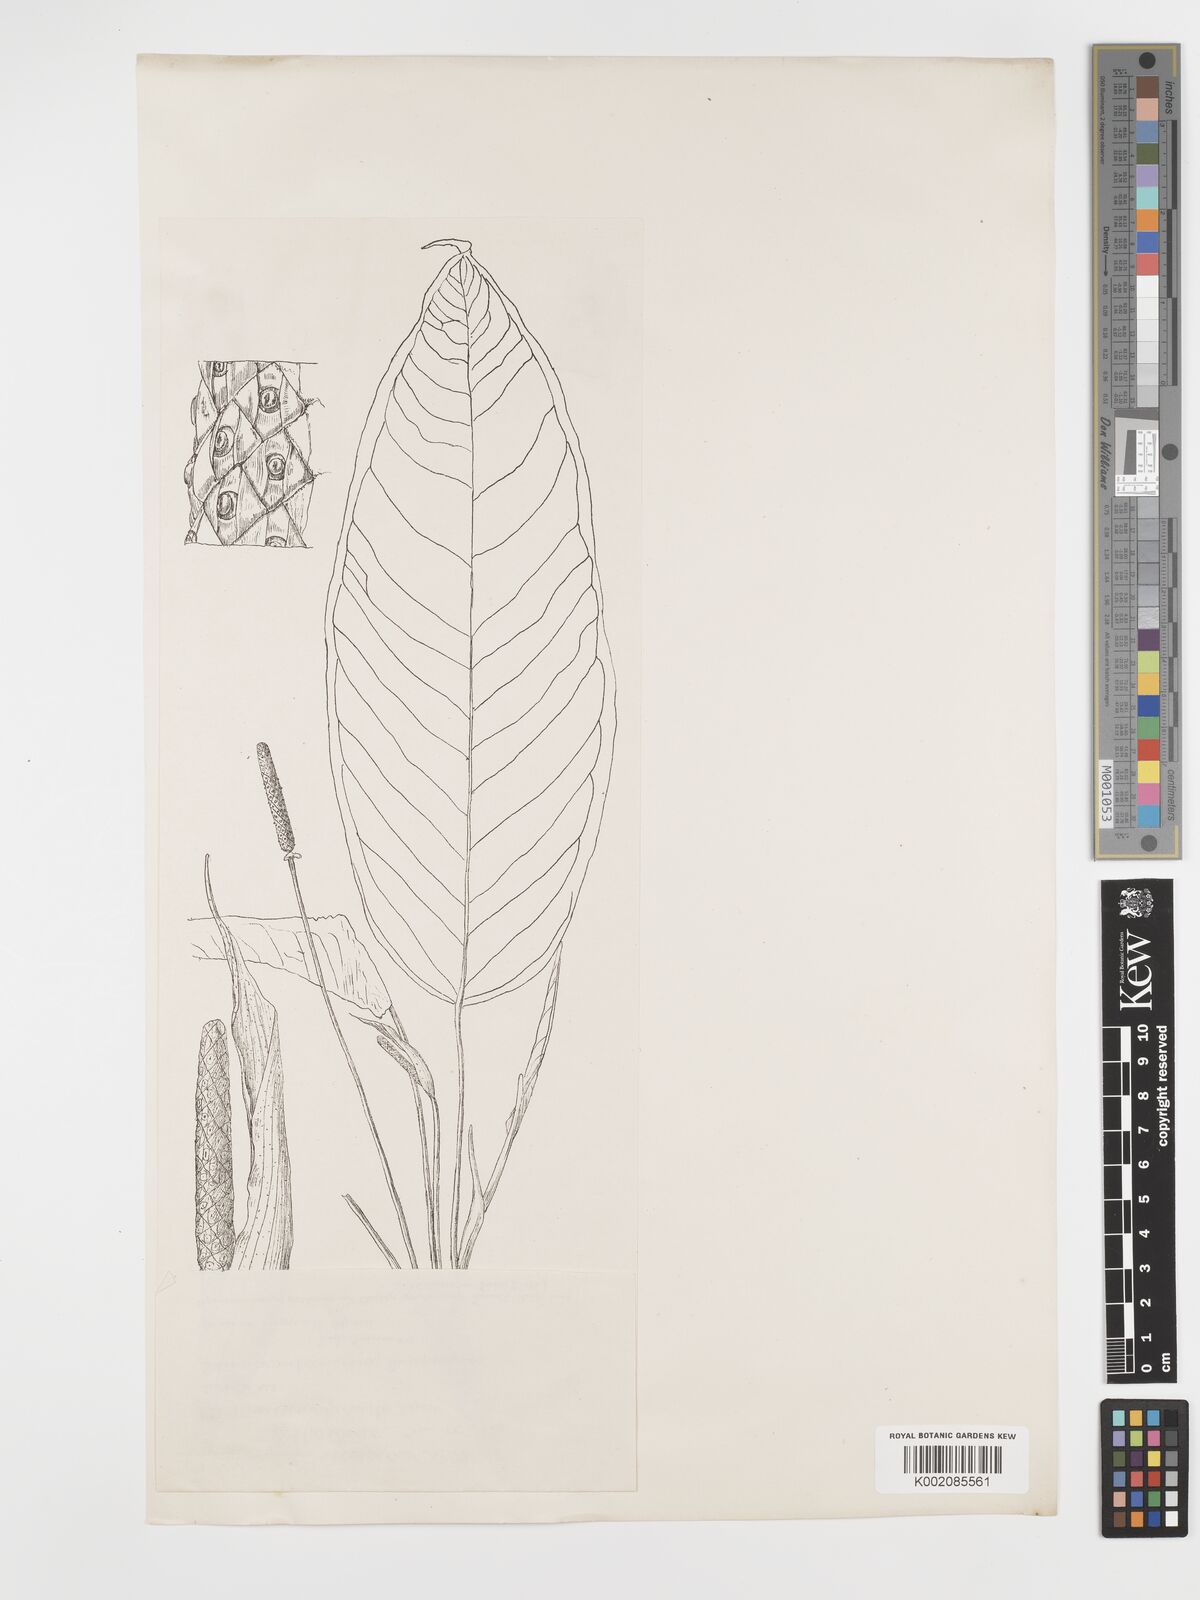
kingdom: Plantae
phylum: Tracheophyta
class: Liliopsida
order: Alismatales
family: Araceae
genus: Anthurium
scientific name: Anthurium amoenum
